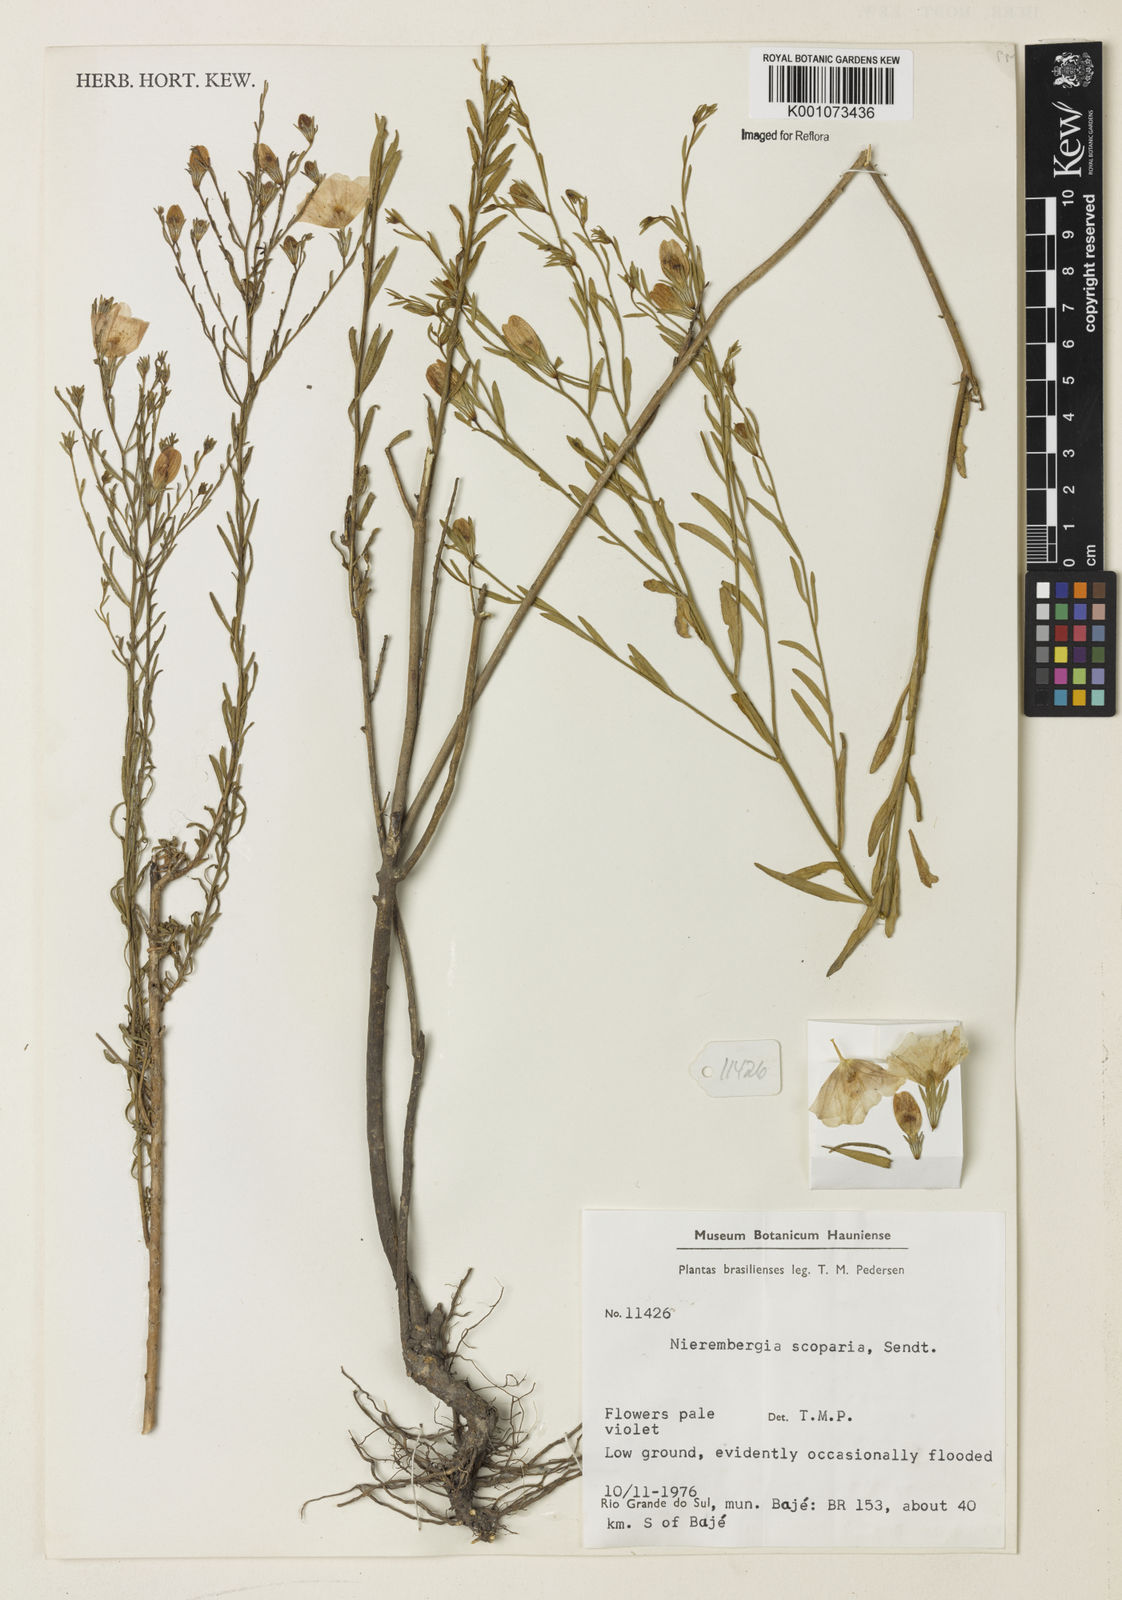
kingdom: Plantae
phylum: Tracheophyta
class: Magnoliopsida
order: Solanales
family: Solanaceae
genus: Nierembergia
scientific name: Nierembergia scoparia
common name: Broom cupflower
